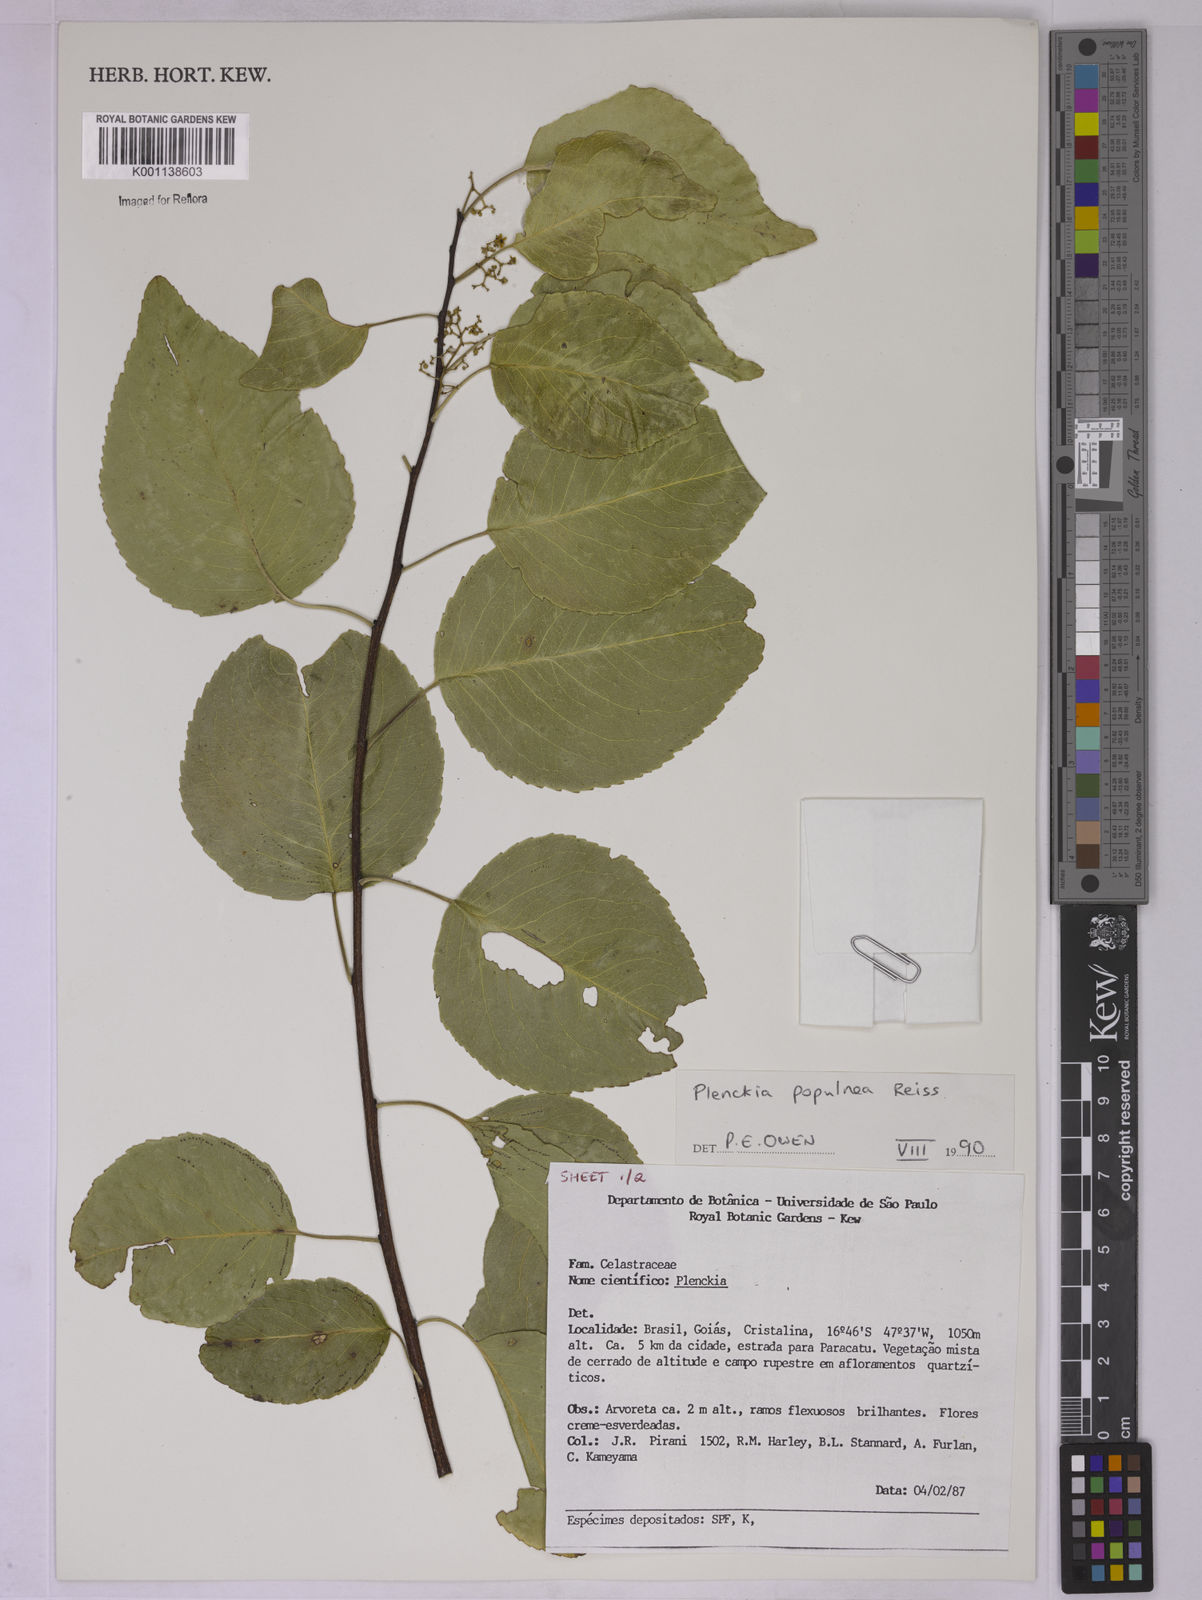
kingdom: Plantae
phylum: Tracheophyta
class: Magnoliopsida
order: Celastrales
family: Celastraceae
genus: Plenckia
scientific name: Plenckia populnea
